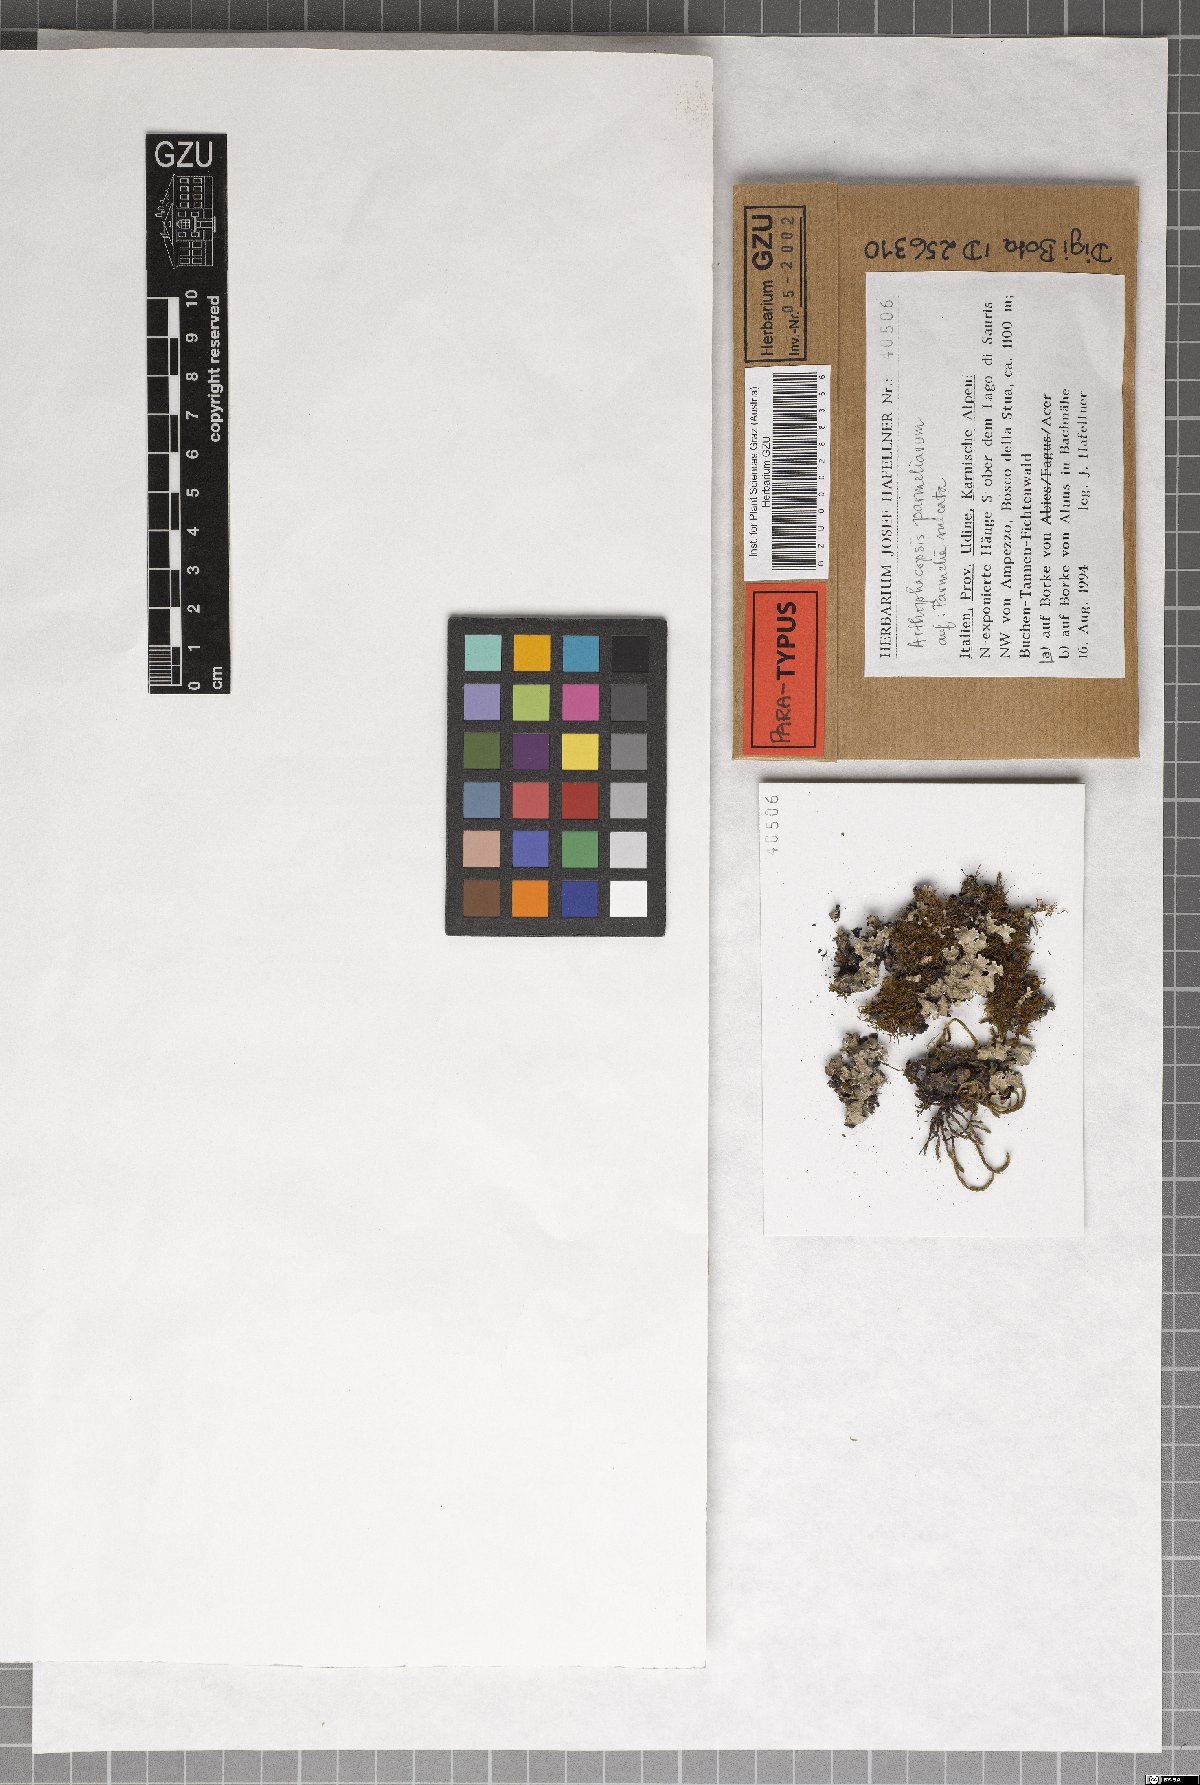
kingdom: Fungi
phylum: Ascomycota
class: Arthoniomycetes
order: Arthoniales
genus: Arthophacopsis
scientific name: Arthophacopsis parmeliarum
